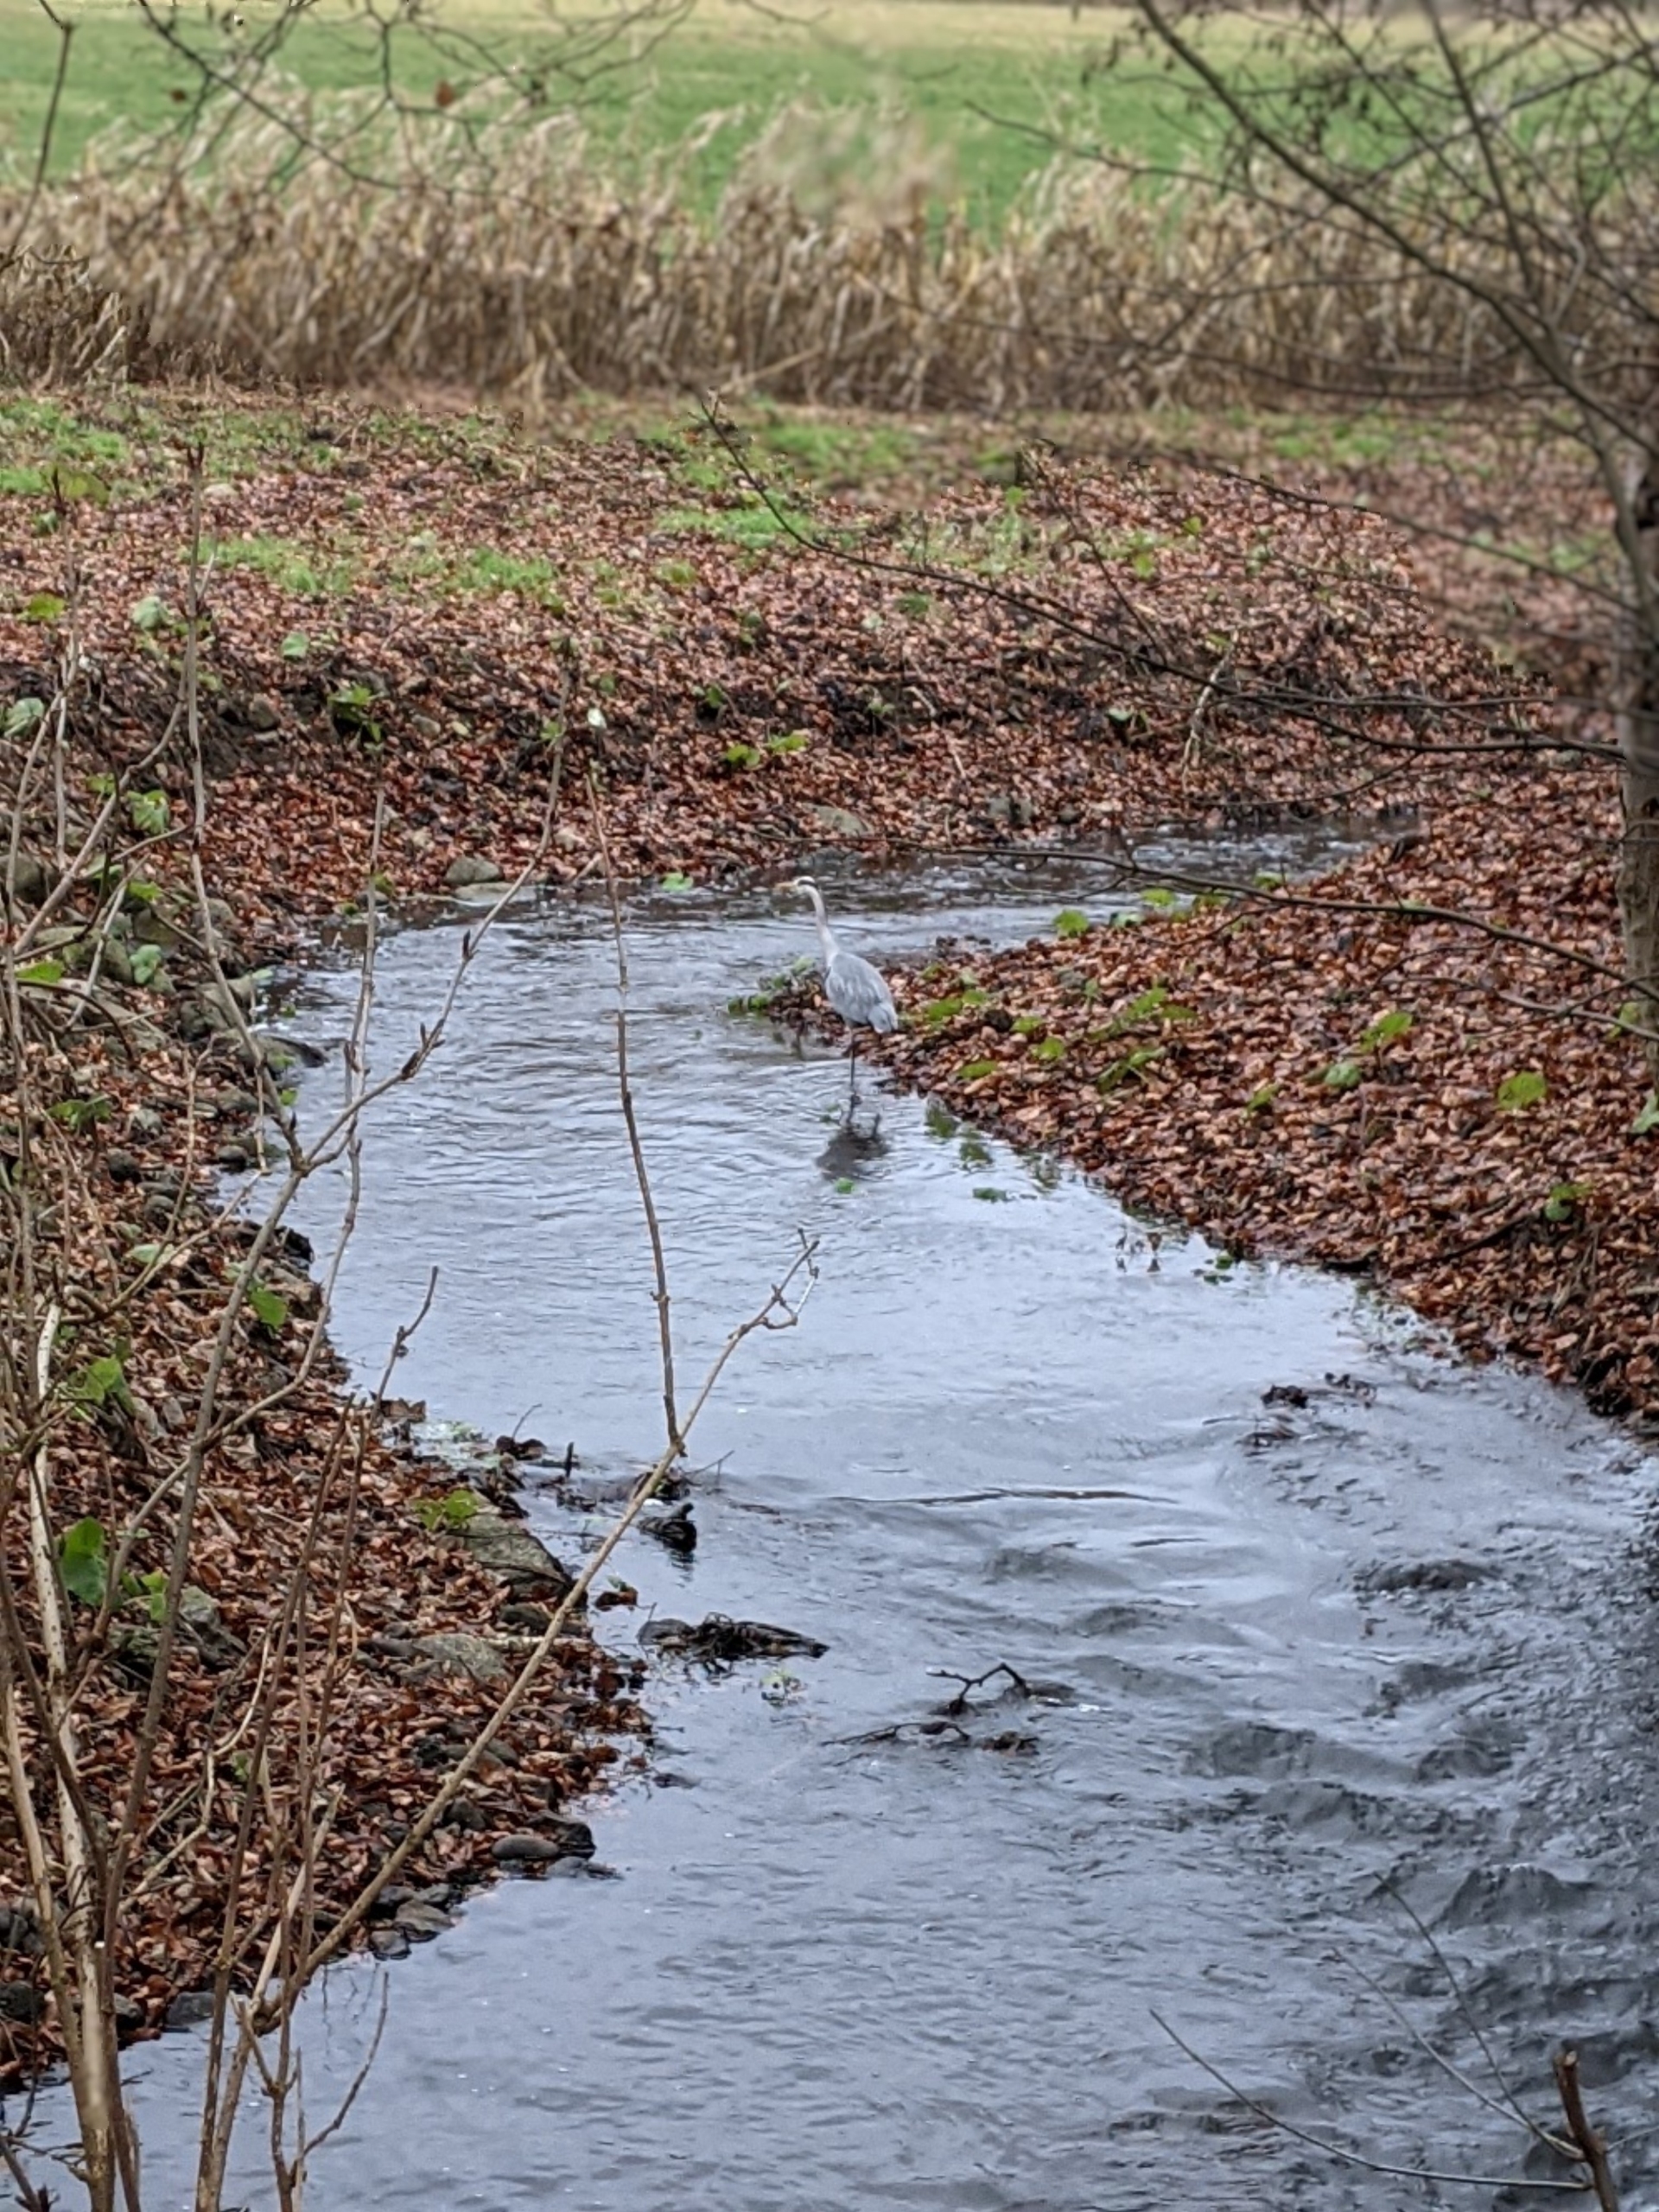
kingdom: Animalia
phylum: Chordata
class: Aves
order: Pelecaniformes
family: Ardeidae
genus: Ardea
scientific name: Ardea cinerea
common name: Fiskehejre
